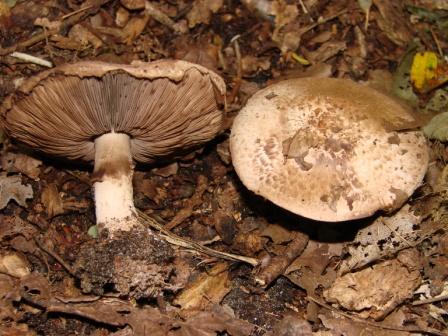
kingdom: Fungi
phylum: Basidiomycota
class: Agaricomycetes
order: Agaricales
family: Agaricaceae
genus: Agaricus
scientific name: Agaricus sylvaticus
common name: lille blod-champignon
